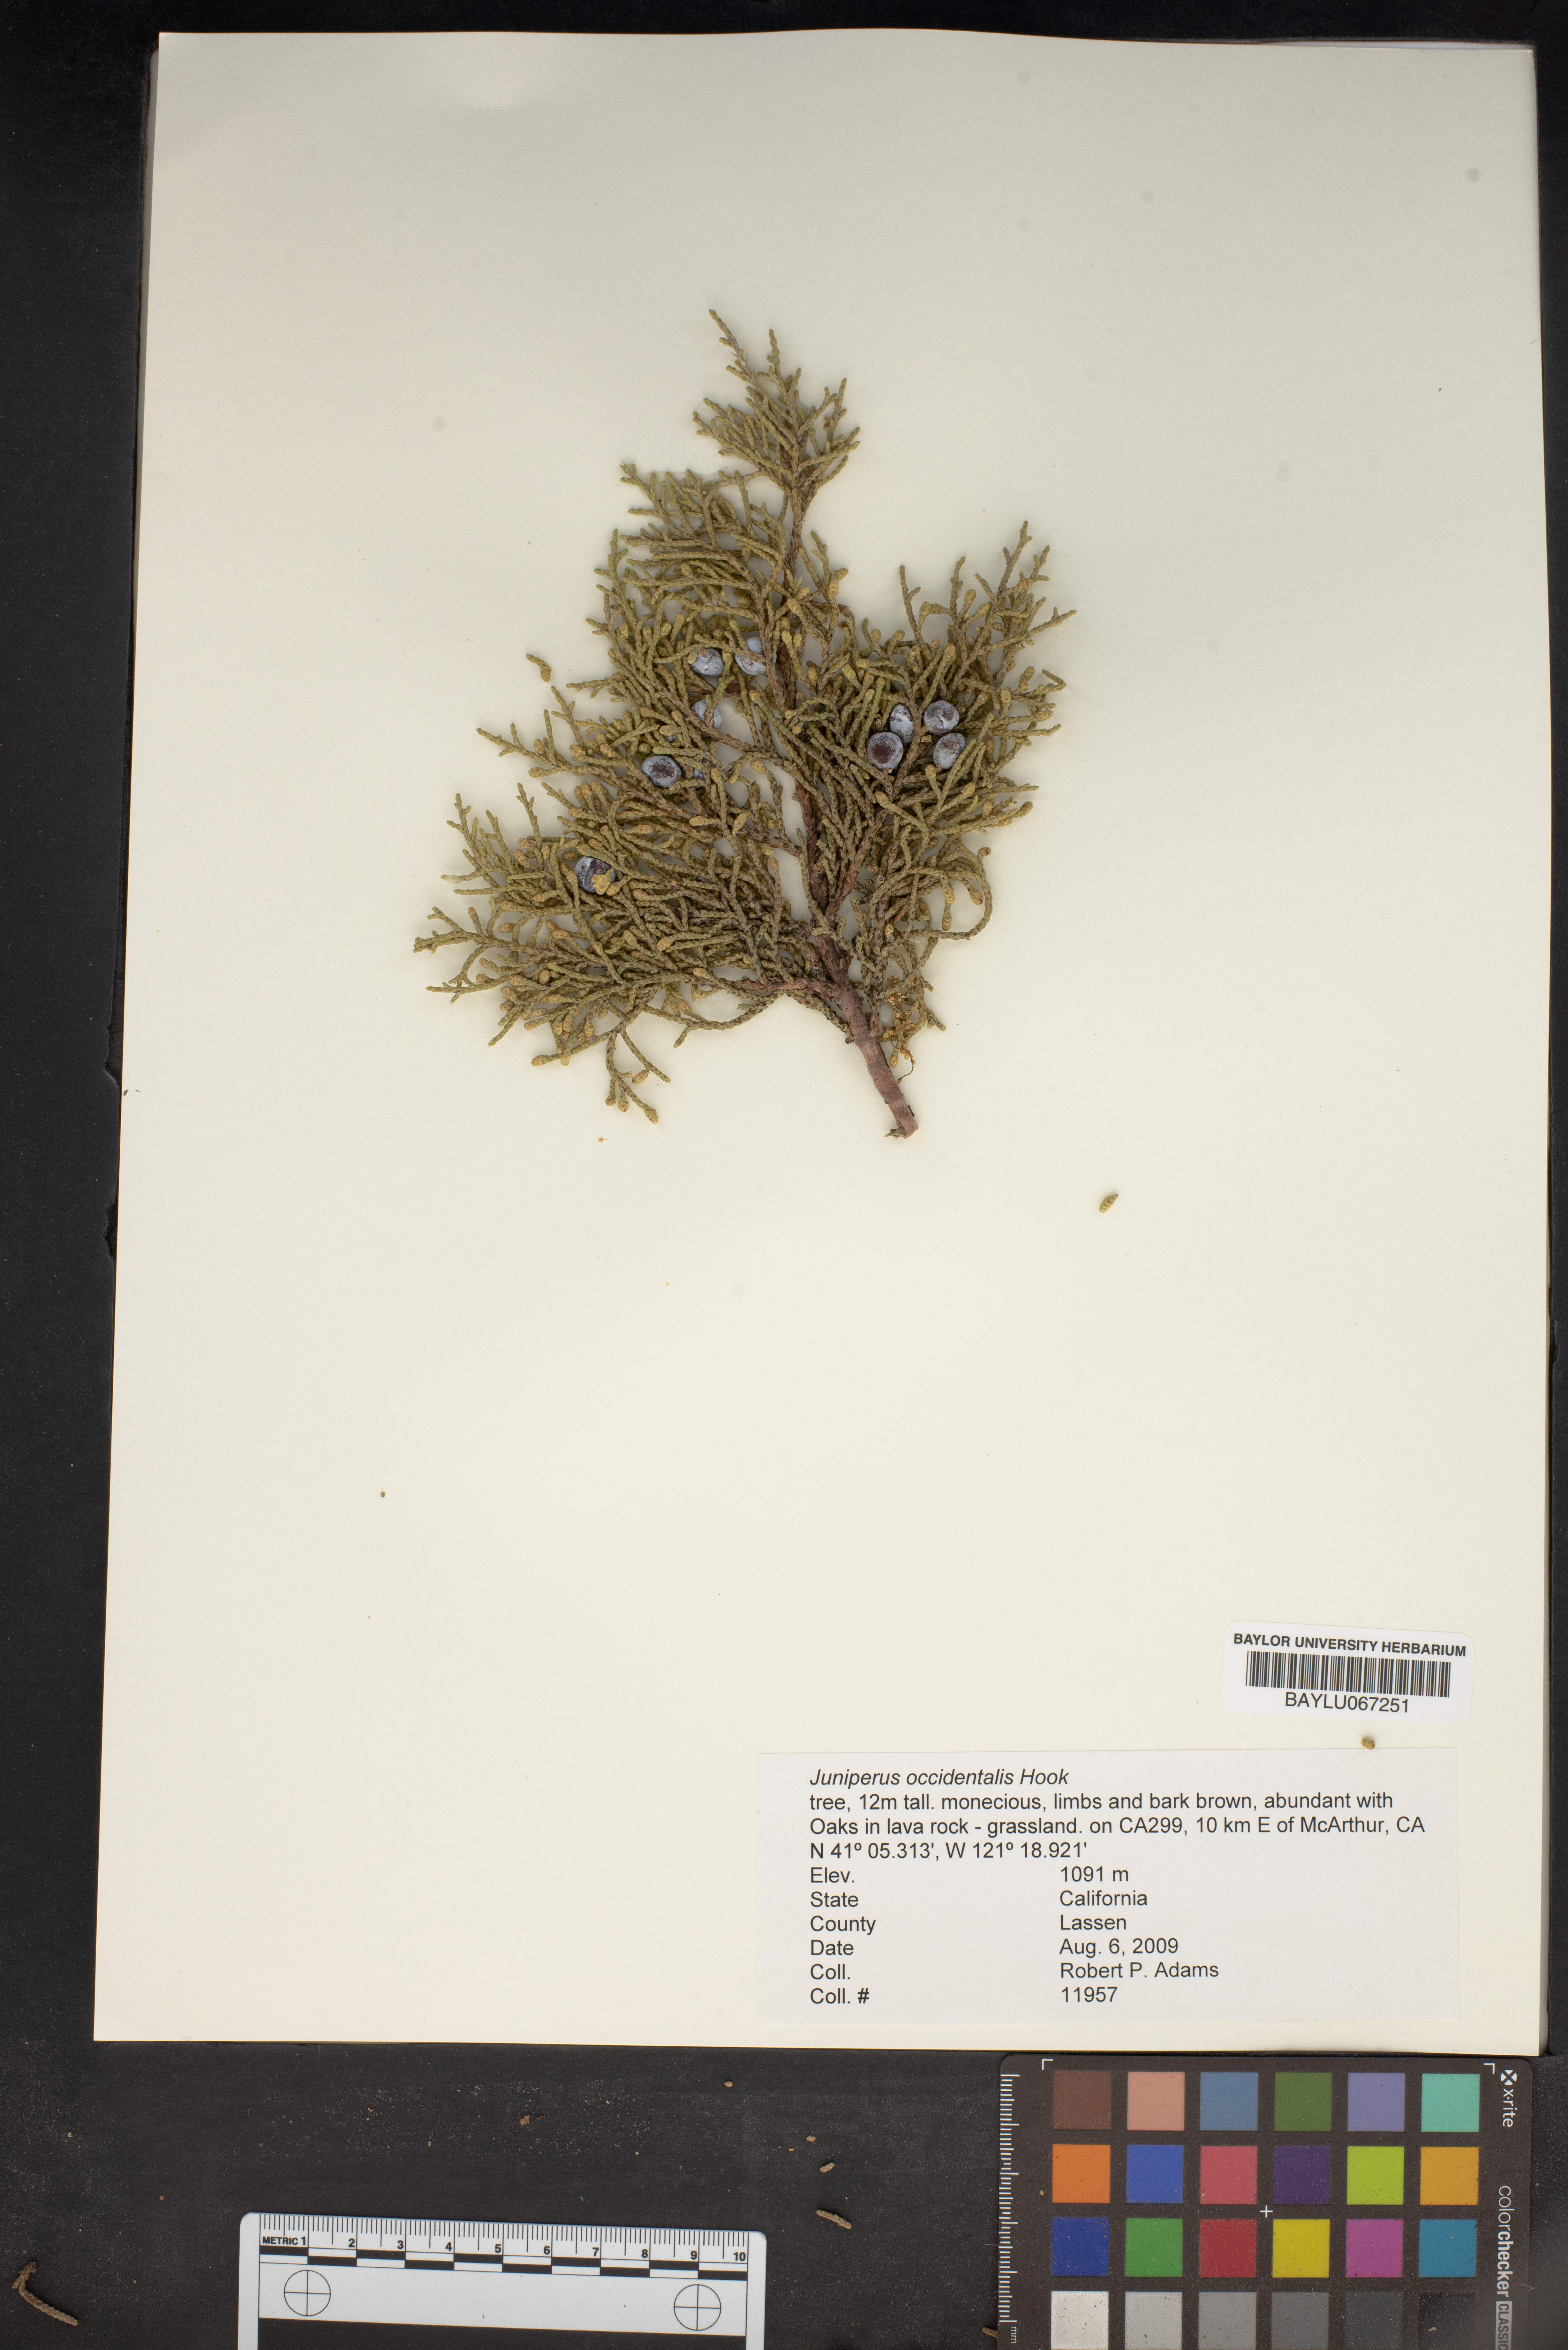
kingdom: Plantae
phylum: Tracheophyta
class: Pinopsida
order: Pinales
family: Cupressaceae
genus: Juniperus
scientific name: Juniperus occidentalis
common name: Western juniper
